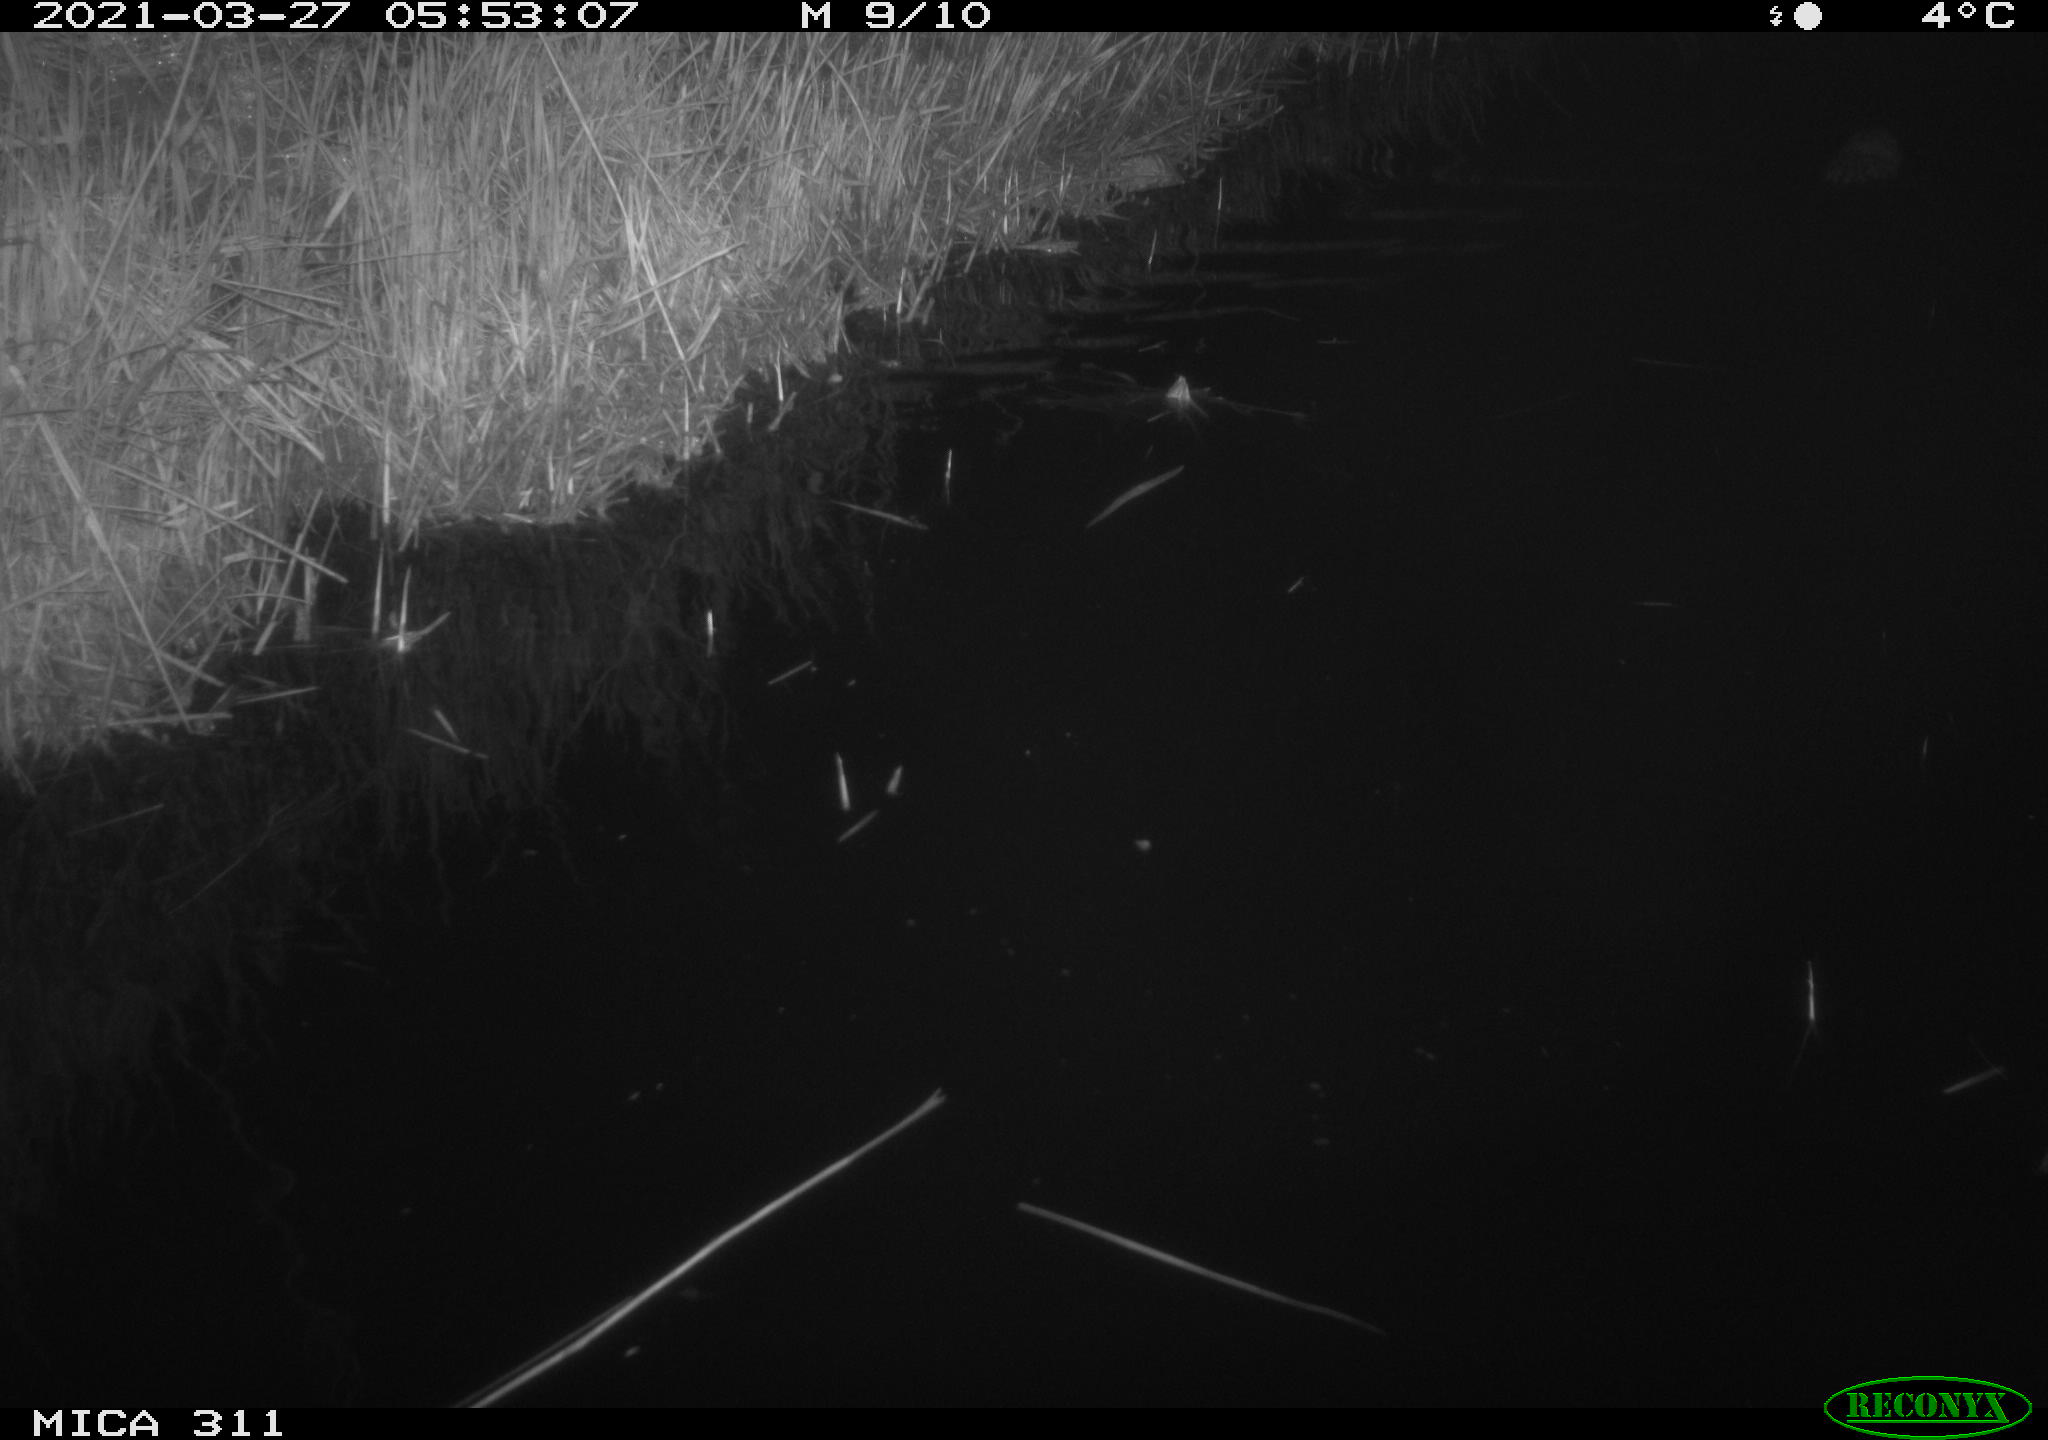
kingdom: Animalia
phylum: Chordata
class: Mammalia
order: Rodentia
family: Cricetidae
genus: Ondatra
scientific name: Ondatra zibethicus
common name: Muskrat
